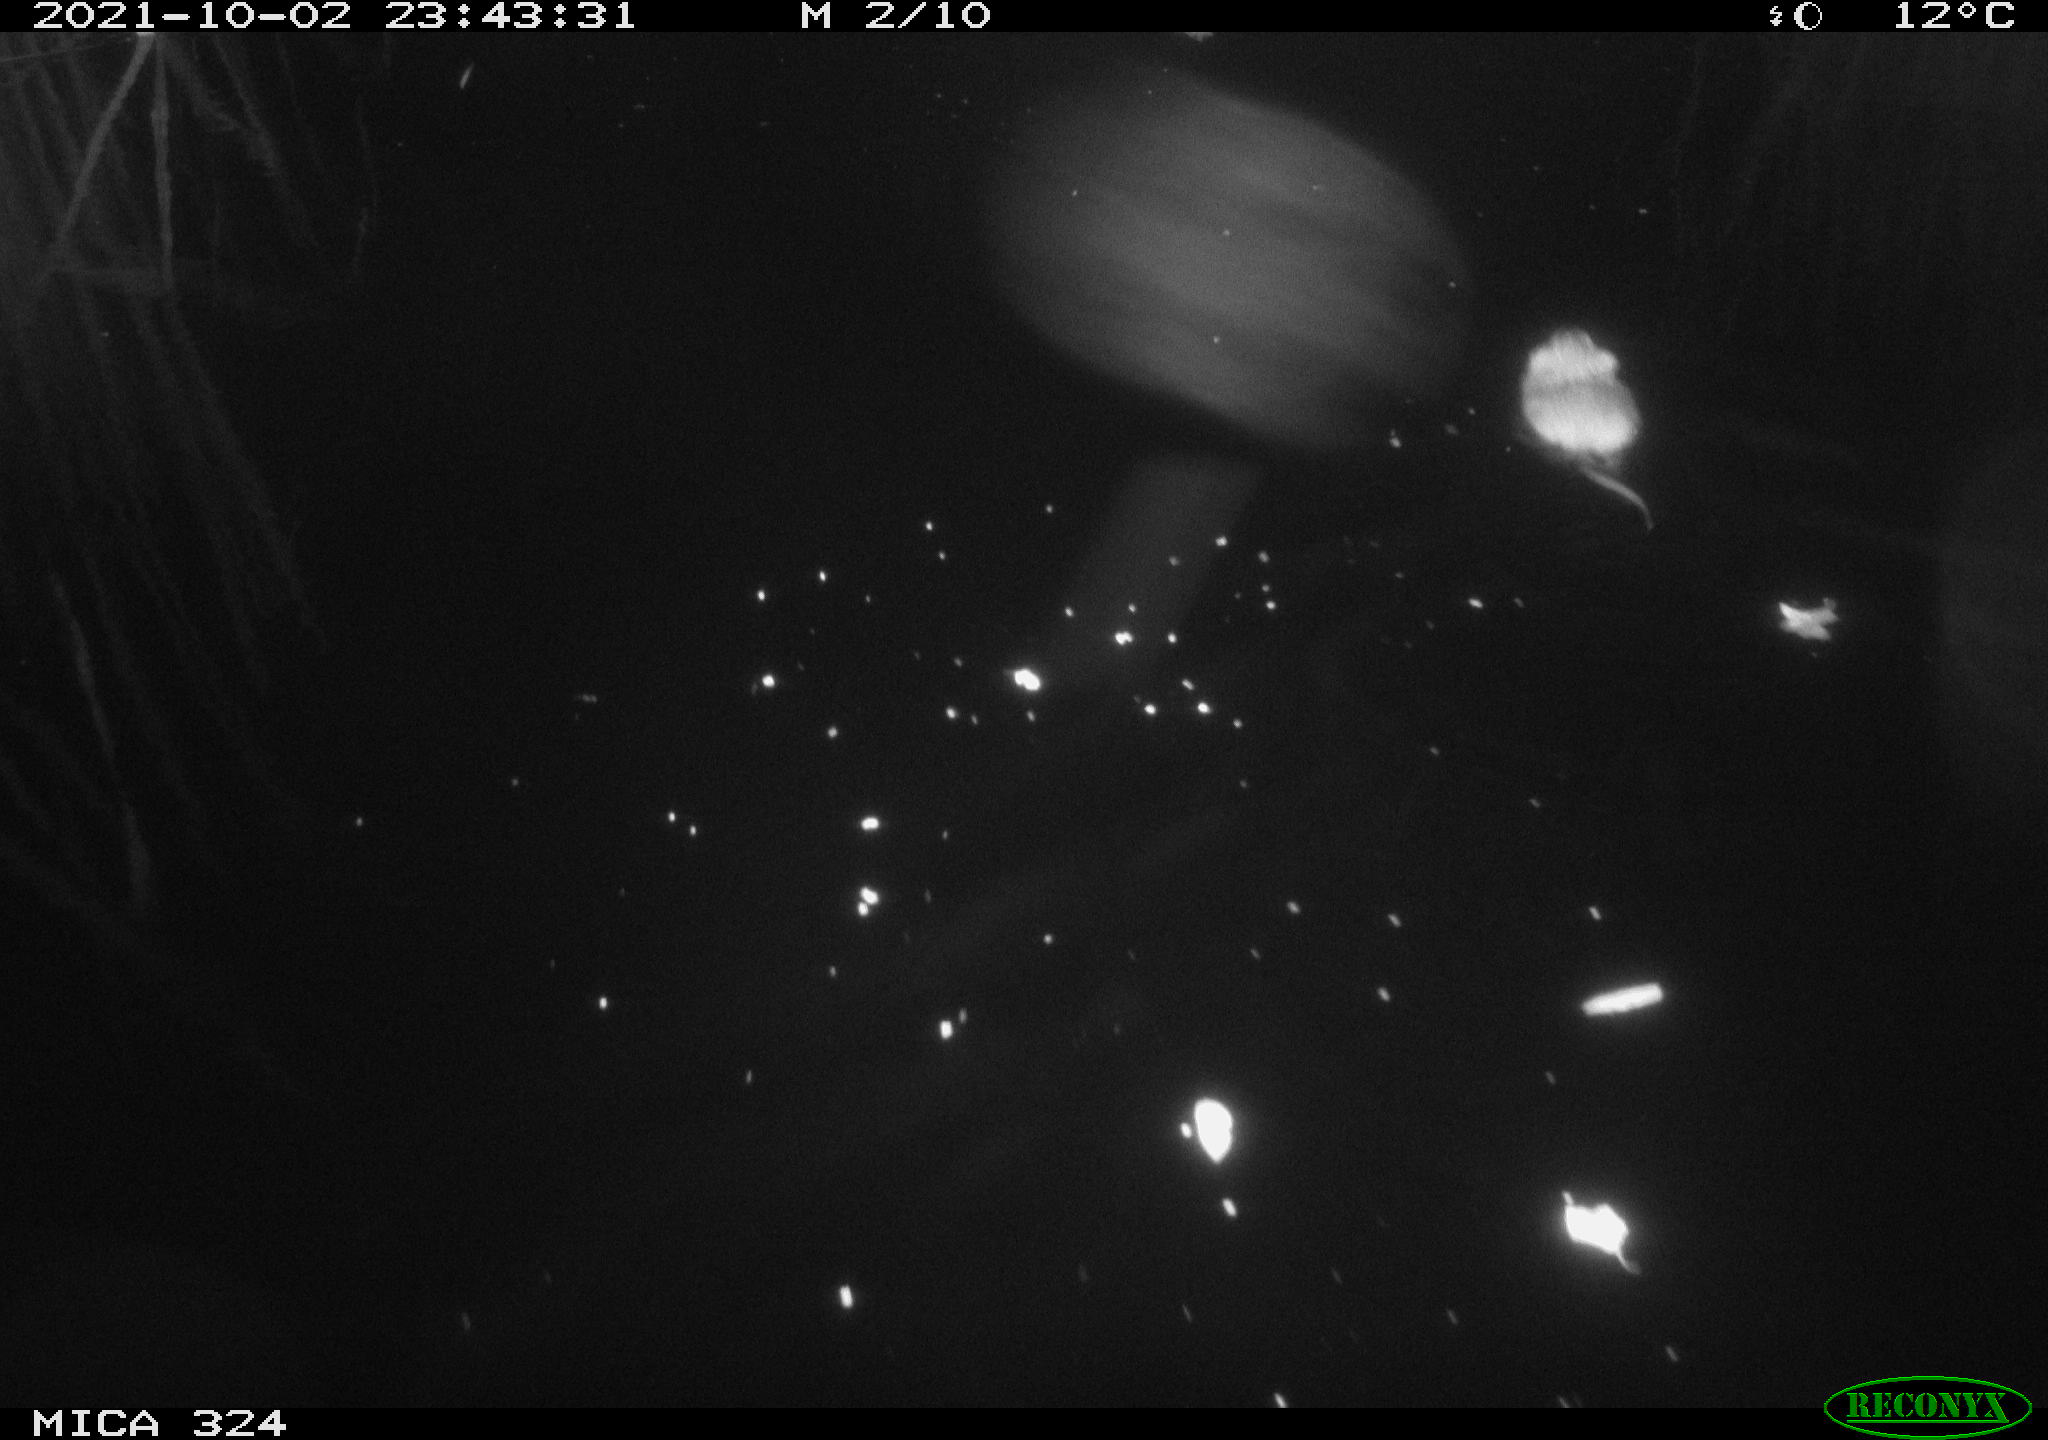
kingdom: Animalia
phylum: Chordata
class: Mammalia
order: Rodentia
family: Cricetidae
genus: Ondatra
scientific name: Ondatra zibethicus
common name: Muskrat
